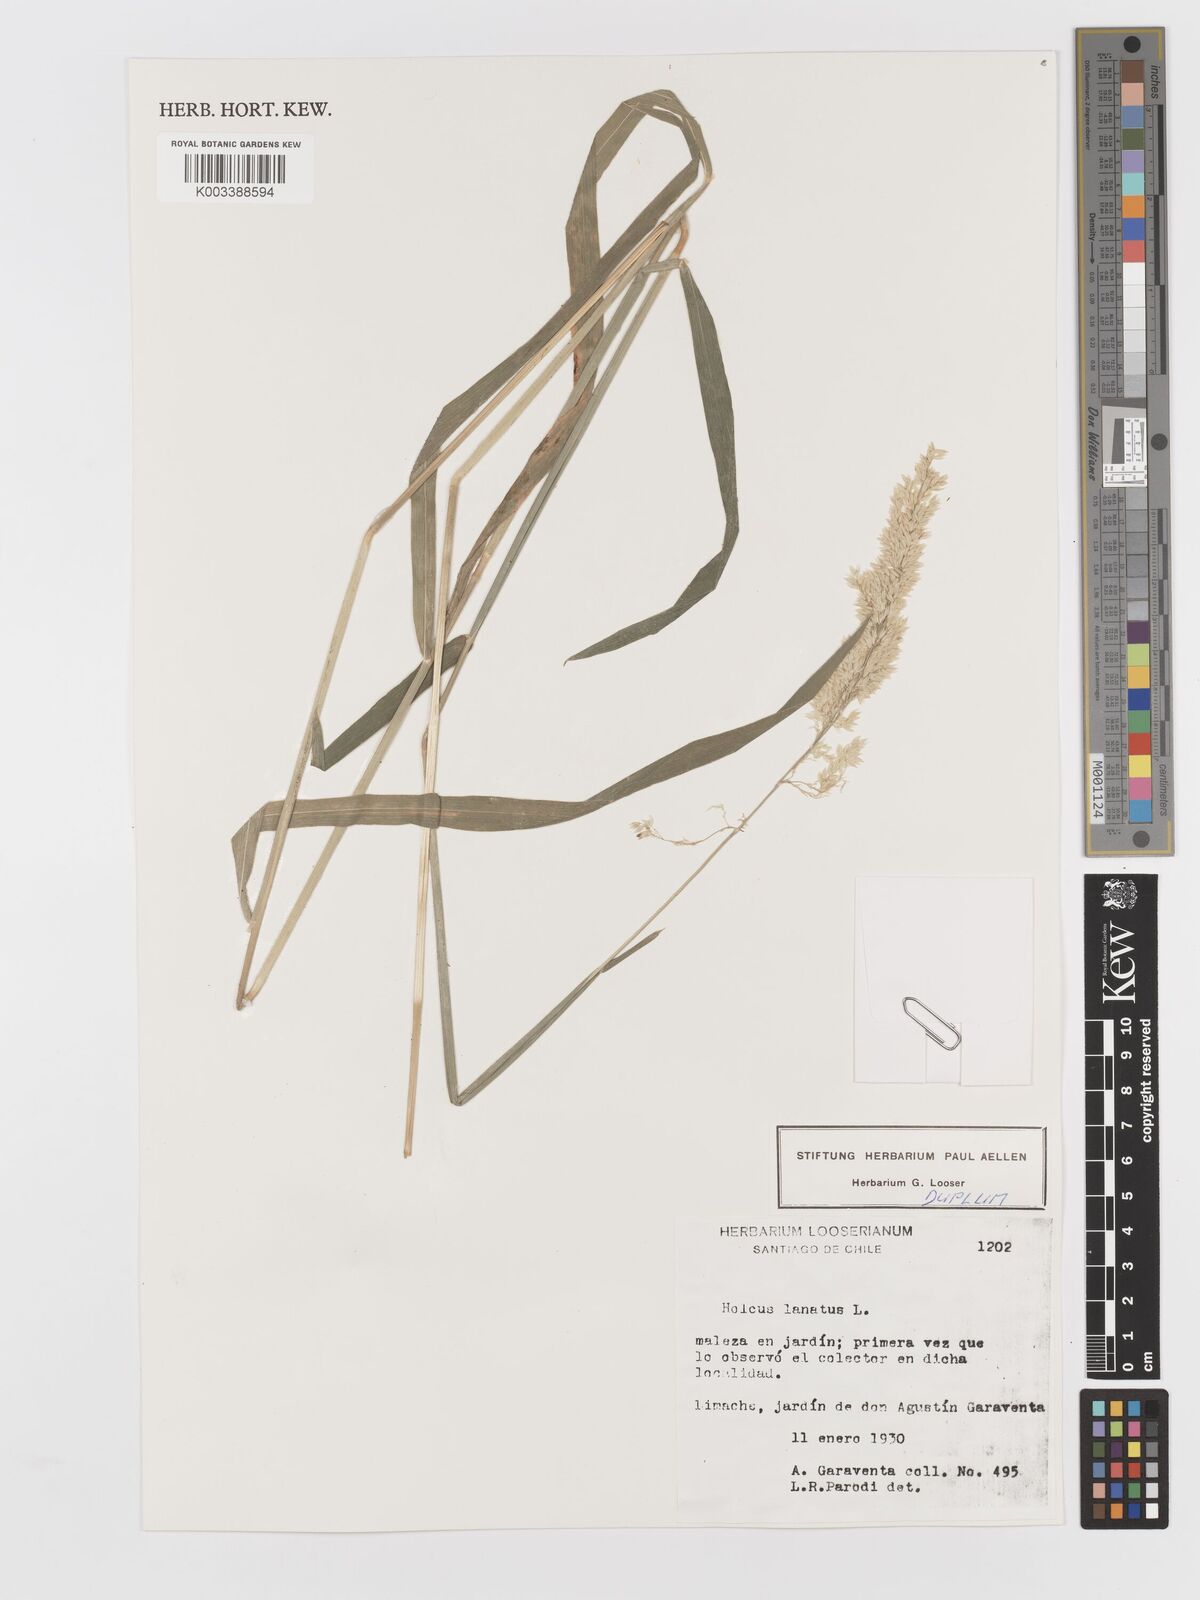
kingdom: Plantae
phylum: Tracheophyta
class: Liliopsida
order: Poales
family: Poaceae
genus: Holcus
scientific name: Holcus lanatus
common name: Yorkshire-fog
